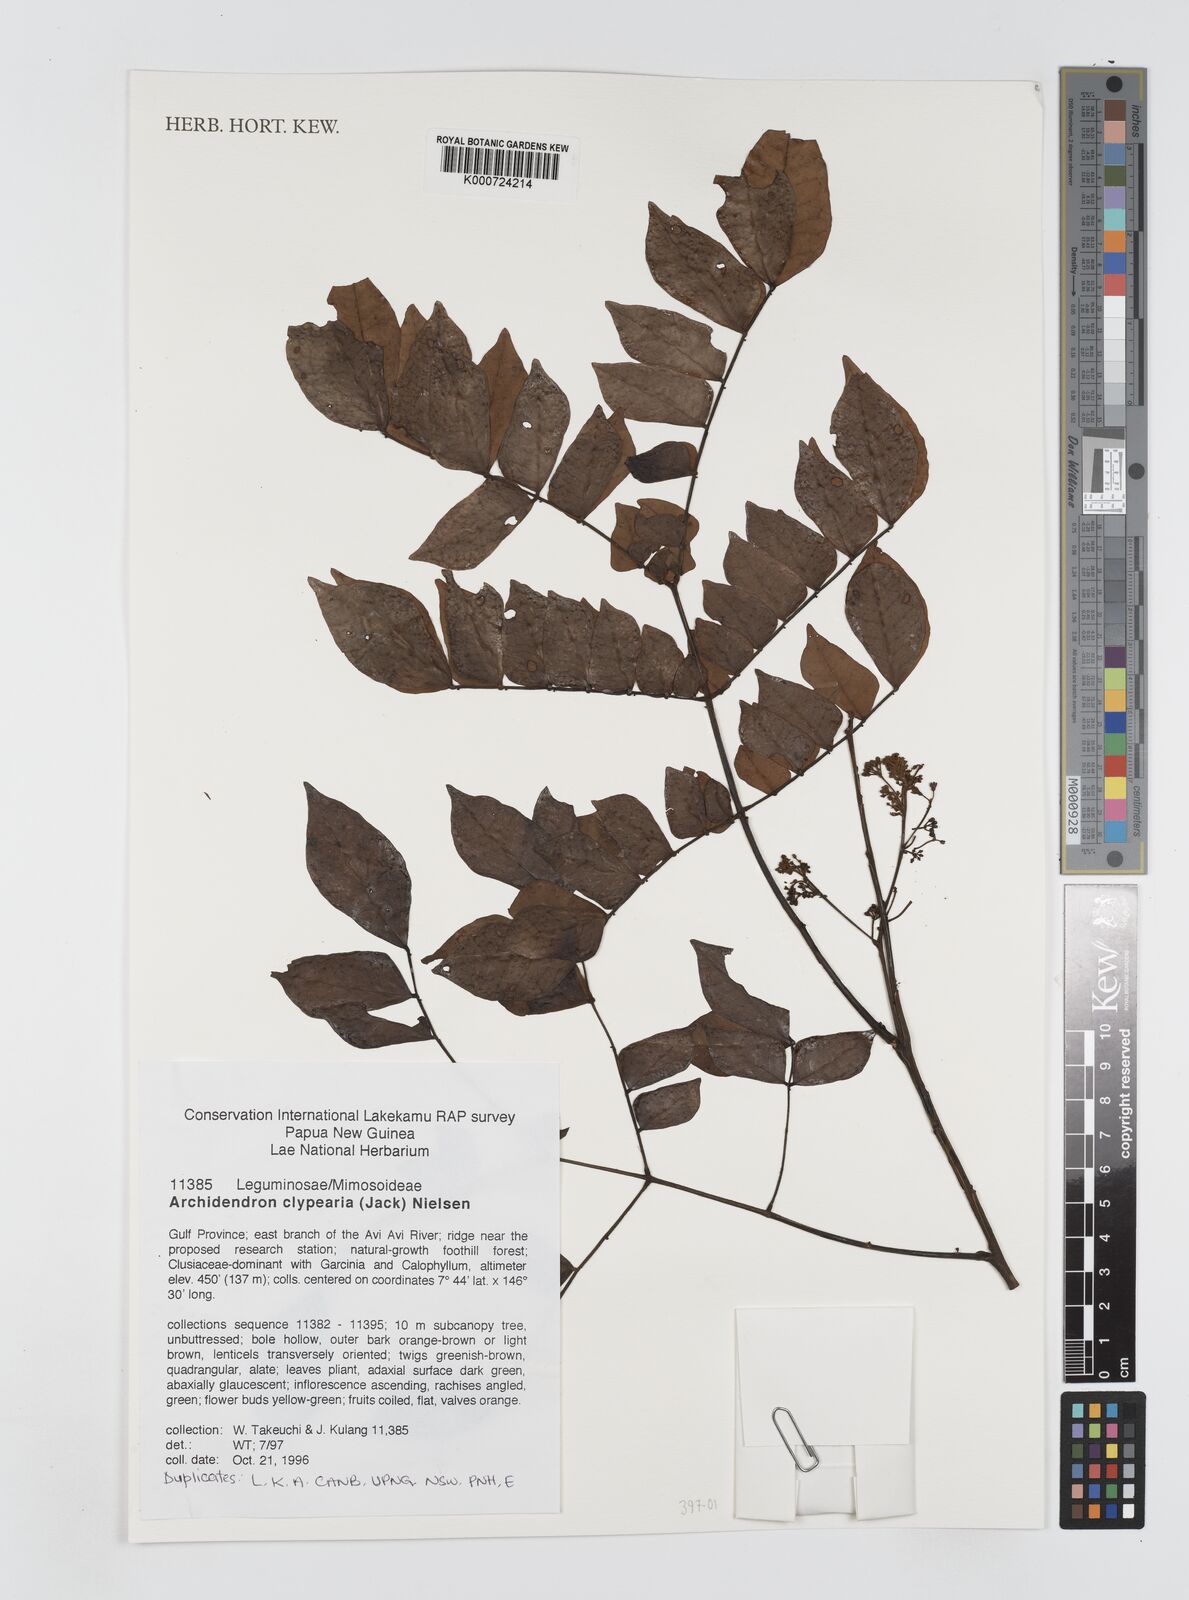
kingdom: Plantae
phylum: Tracheophyta
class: Magnoliopsida
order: Fabales
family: Fabaceae
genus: Archidendron
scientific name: Archidendron clypearia
